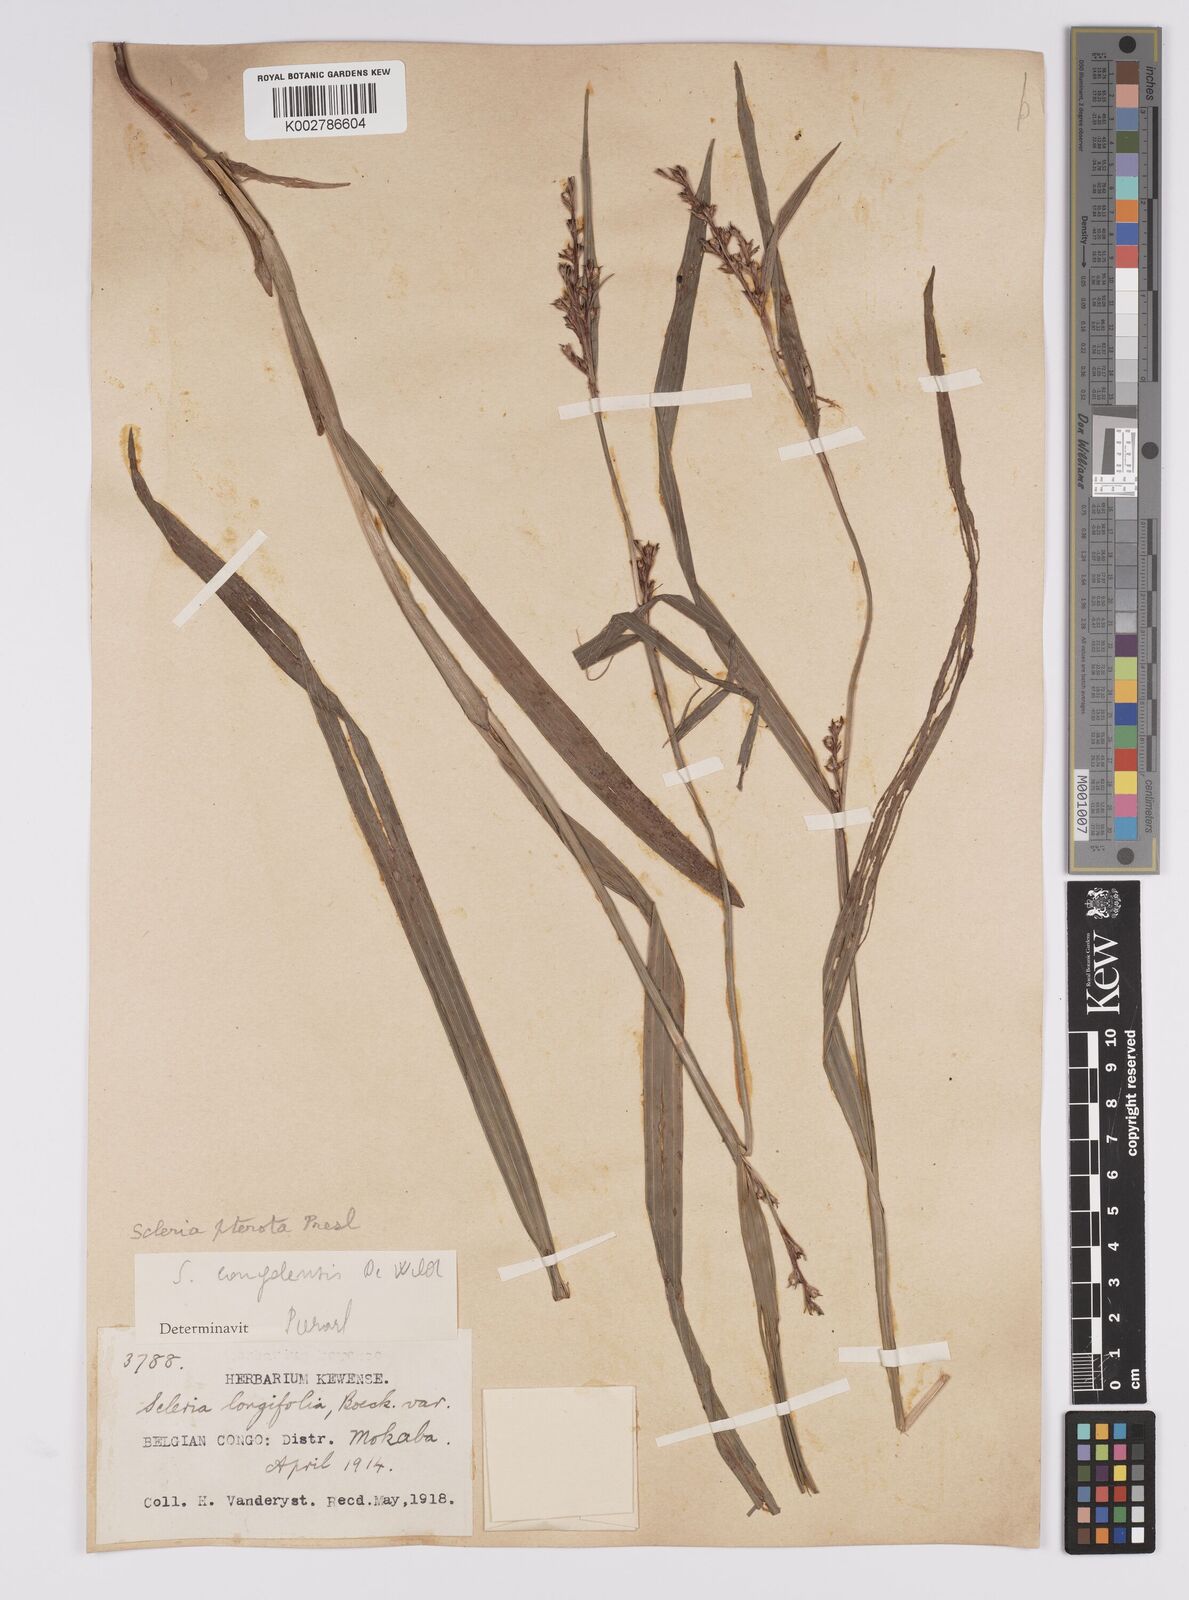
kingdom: Plantae
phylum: Tracheophyta
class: Liliopsida
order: Poales
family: Cyperaceae
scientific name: Cyperaceae
